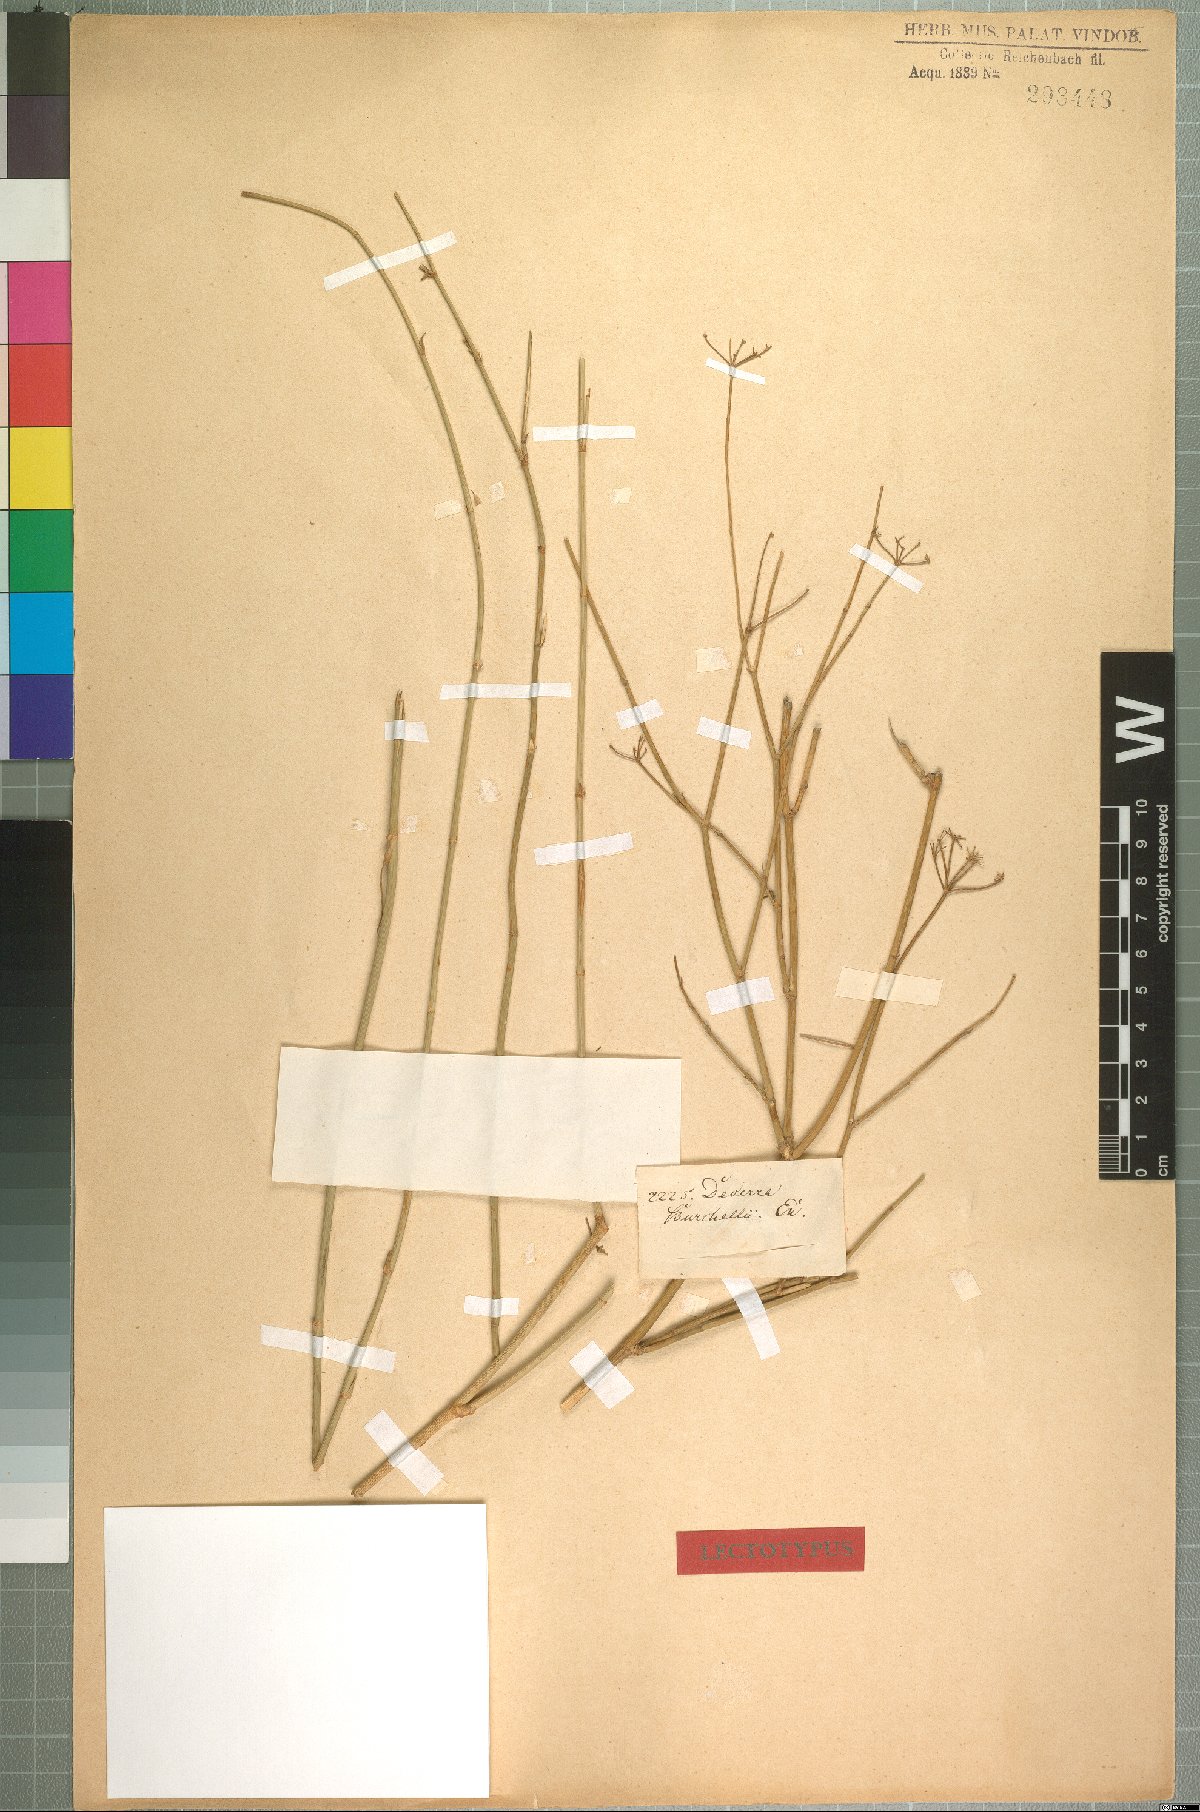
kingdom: Plantae
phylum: Tracheophyta
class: Magnoliopsida
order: Apiales
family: Apiaceae
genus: Deverra
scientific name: Deverra aphylla
